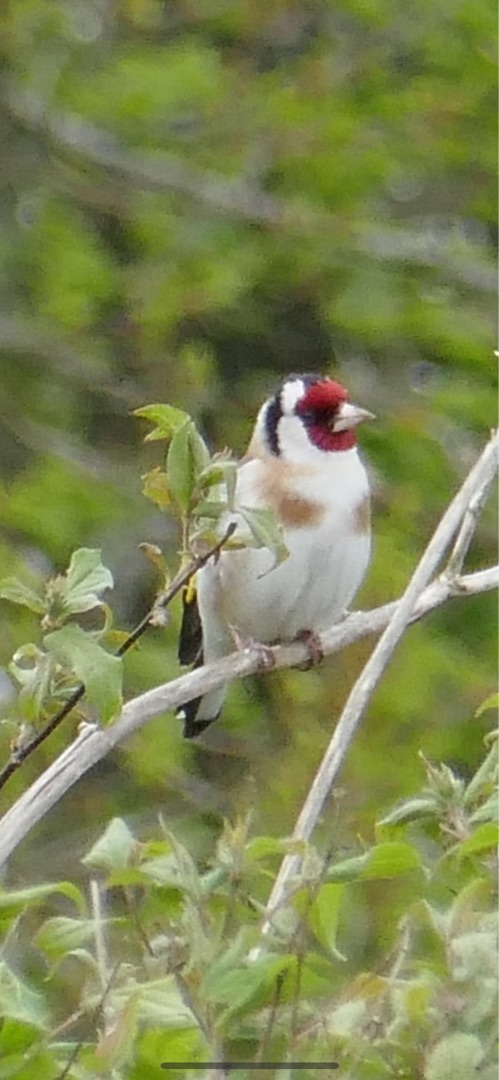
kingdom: Animalia
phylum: Chordata
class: Aves
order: Passeriformes
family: Fringillidae
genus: Carduelis
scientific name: Carduelis carduelis
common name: Stillits
